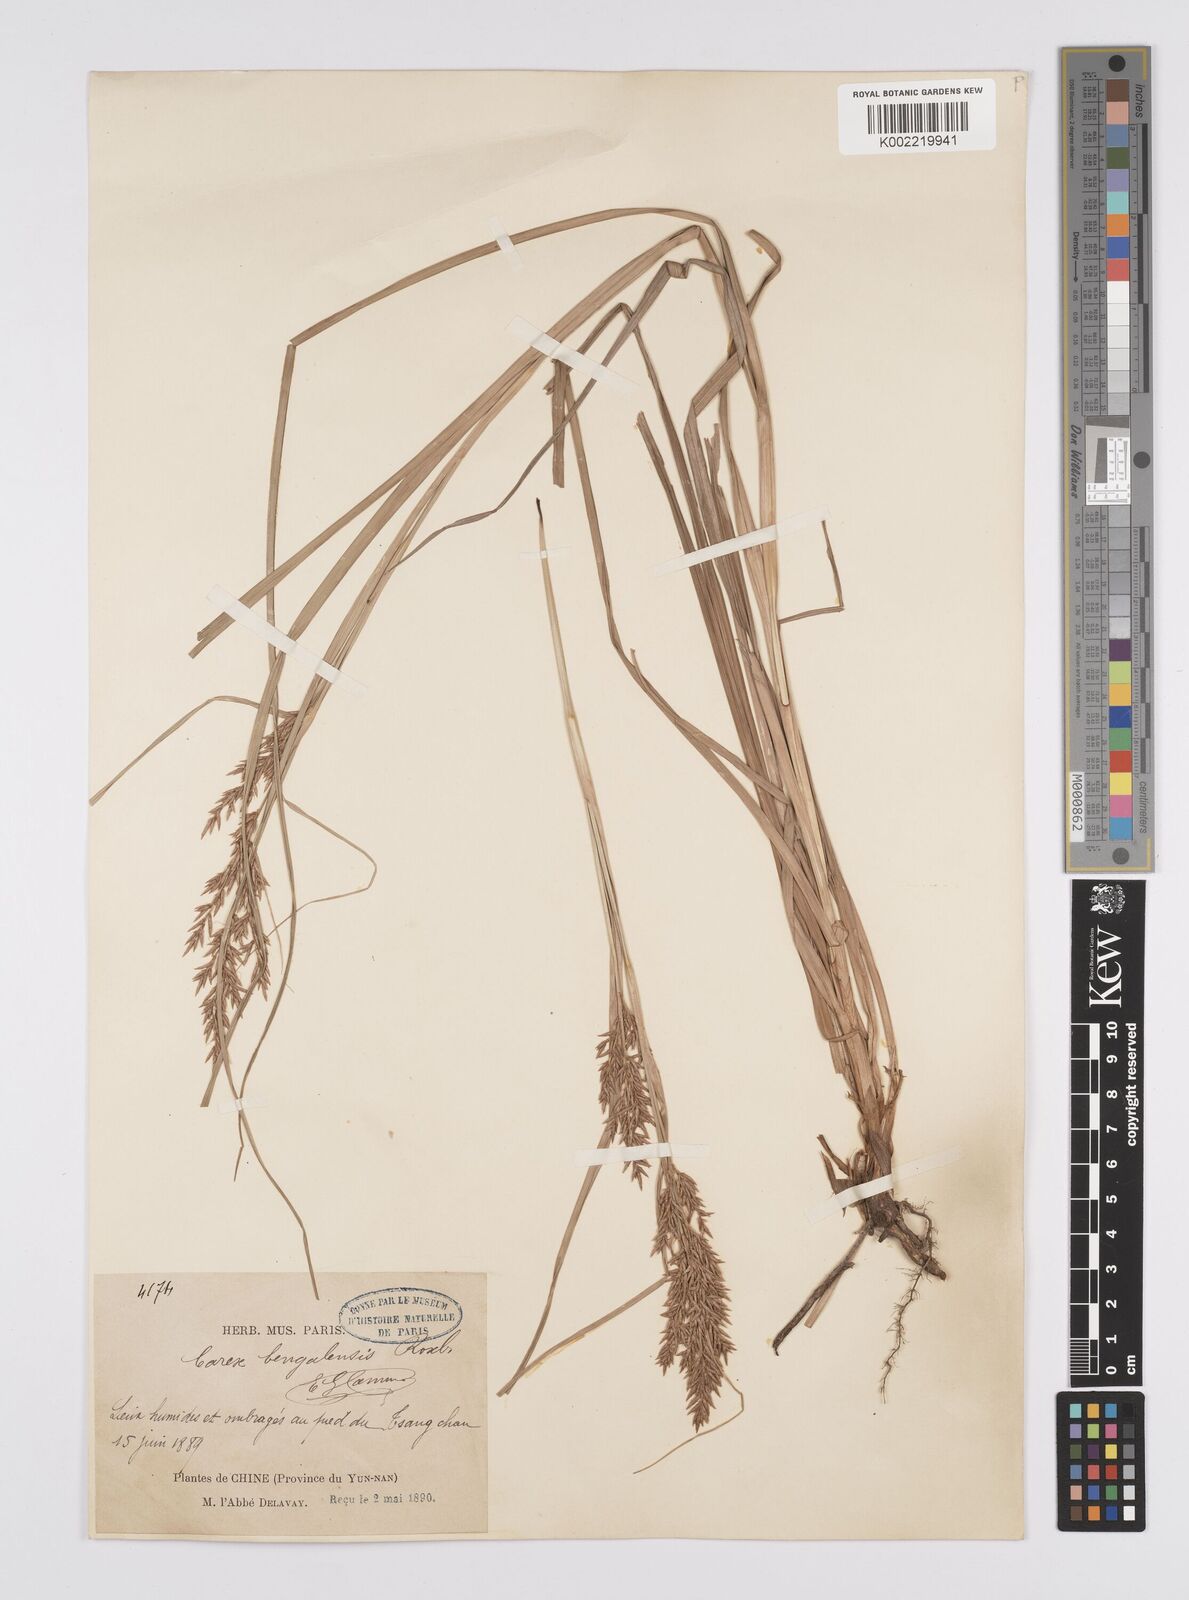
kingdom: Plantae
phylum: Tracheophyta
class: Liliopsida
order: Poales
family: Cyperaceae
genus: Carex
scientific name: Carex cruciata
